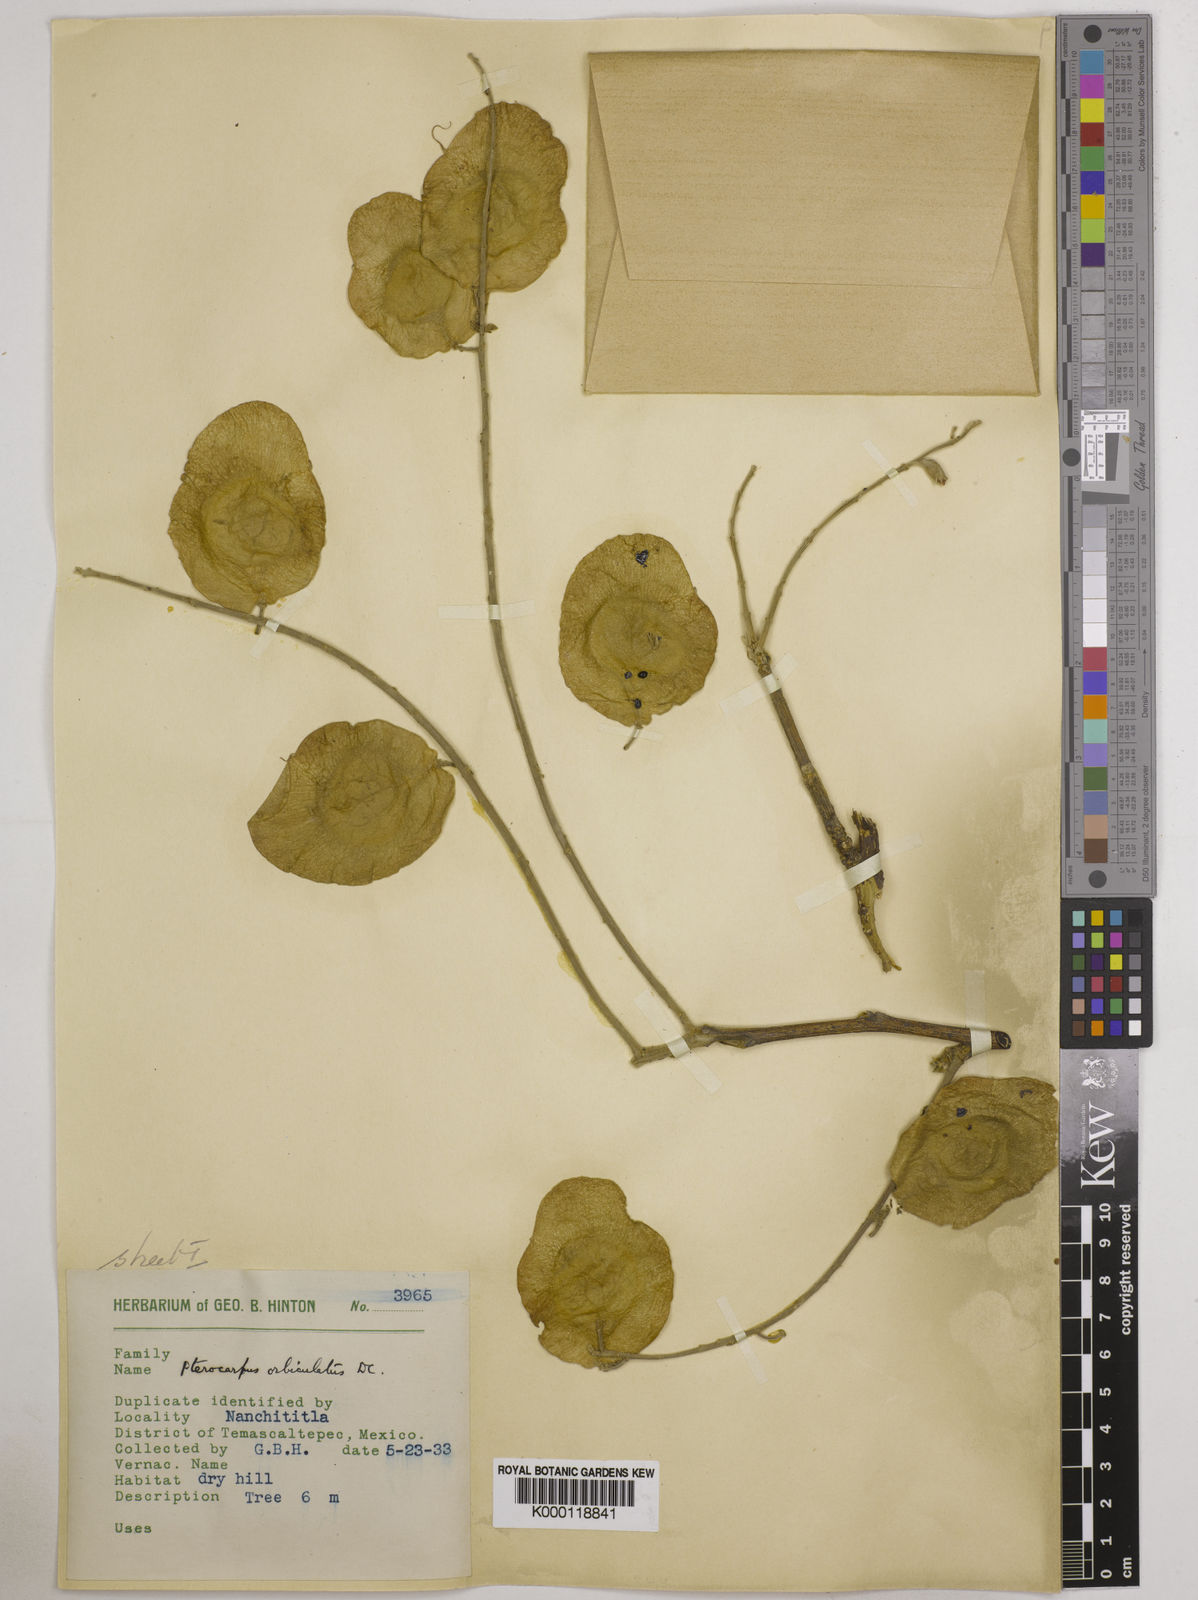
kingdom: Plantae
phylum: Tracheophyta
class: Magnoliopsida
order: Fabales
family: Fabaceae
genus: Pterocarpus
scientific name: Pterocarpus orbiculatus
